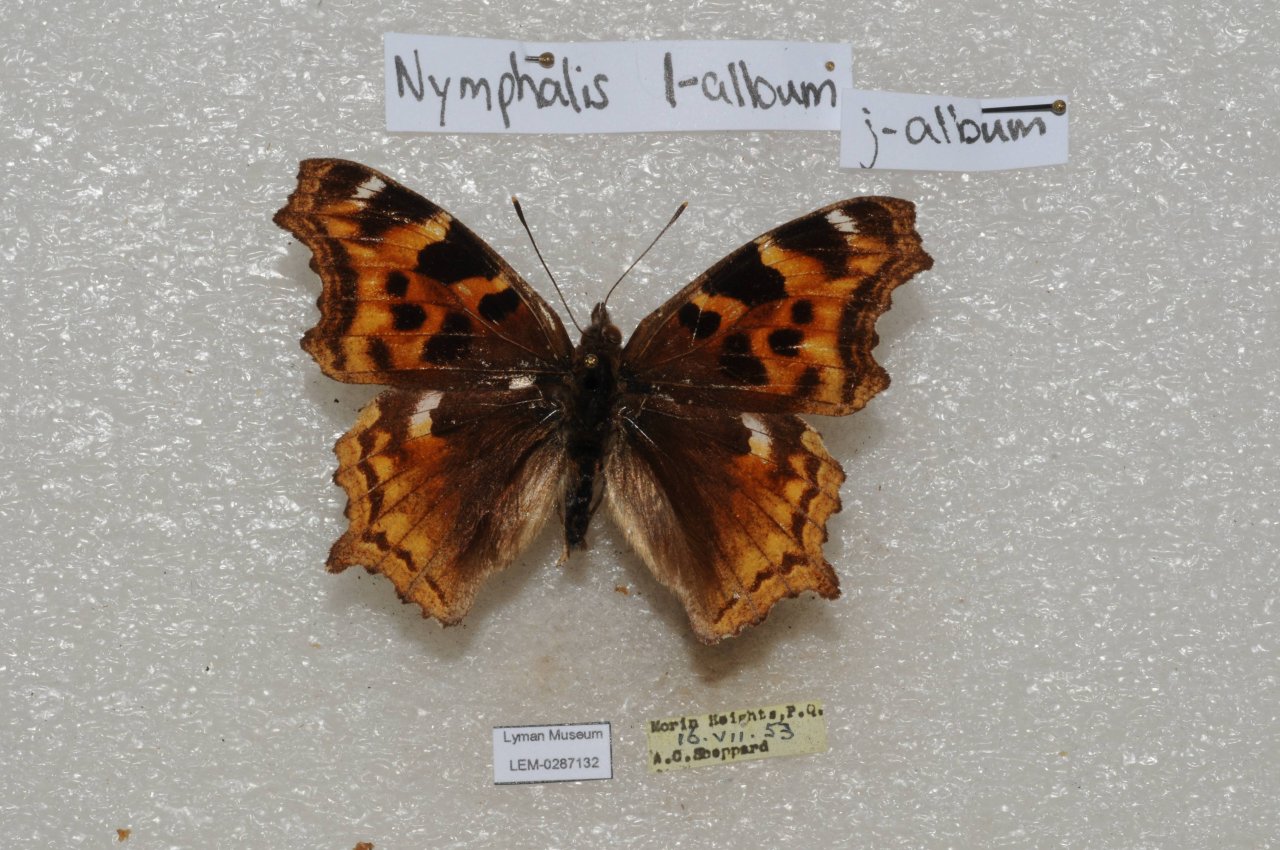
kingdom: Animalia
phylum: Arthropoda
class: Insecta
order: Lepidoptera
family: Nymphalidae
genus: Polygonia
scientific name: Polygonia vaualbum
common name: Compton Tortoiseshell
